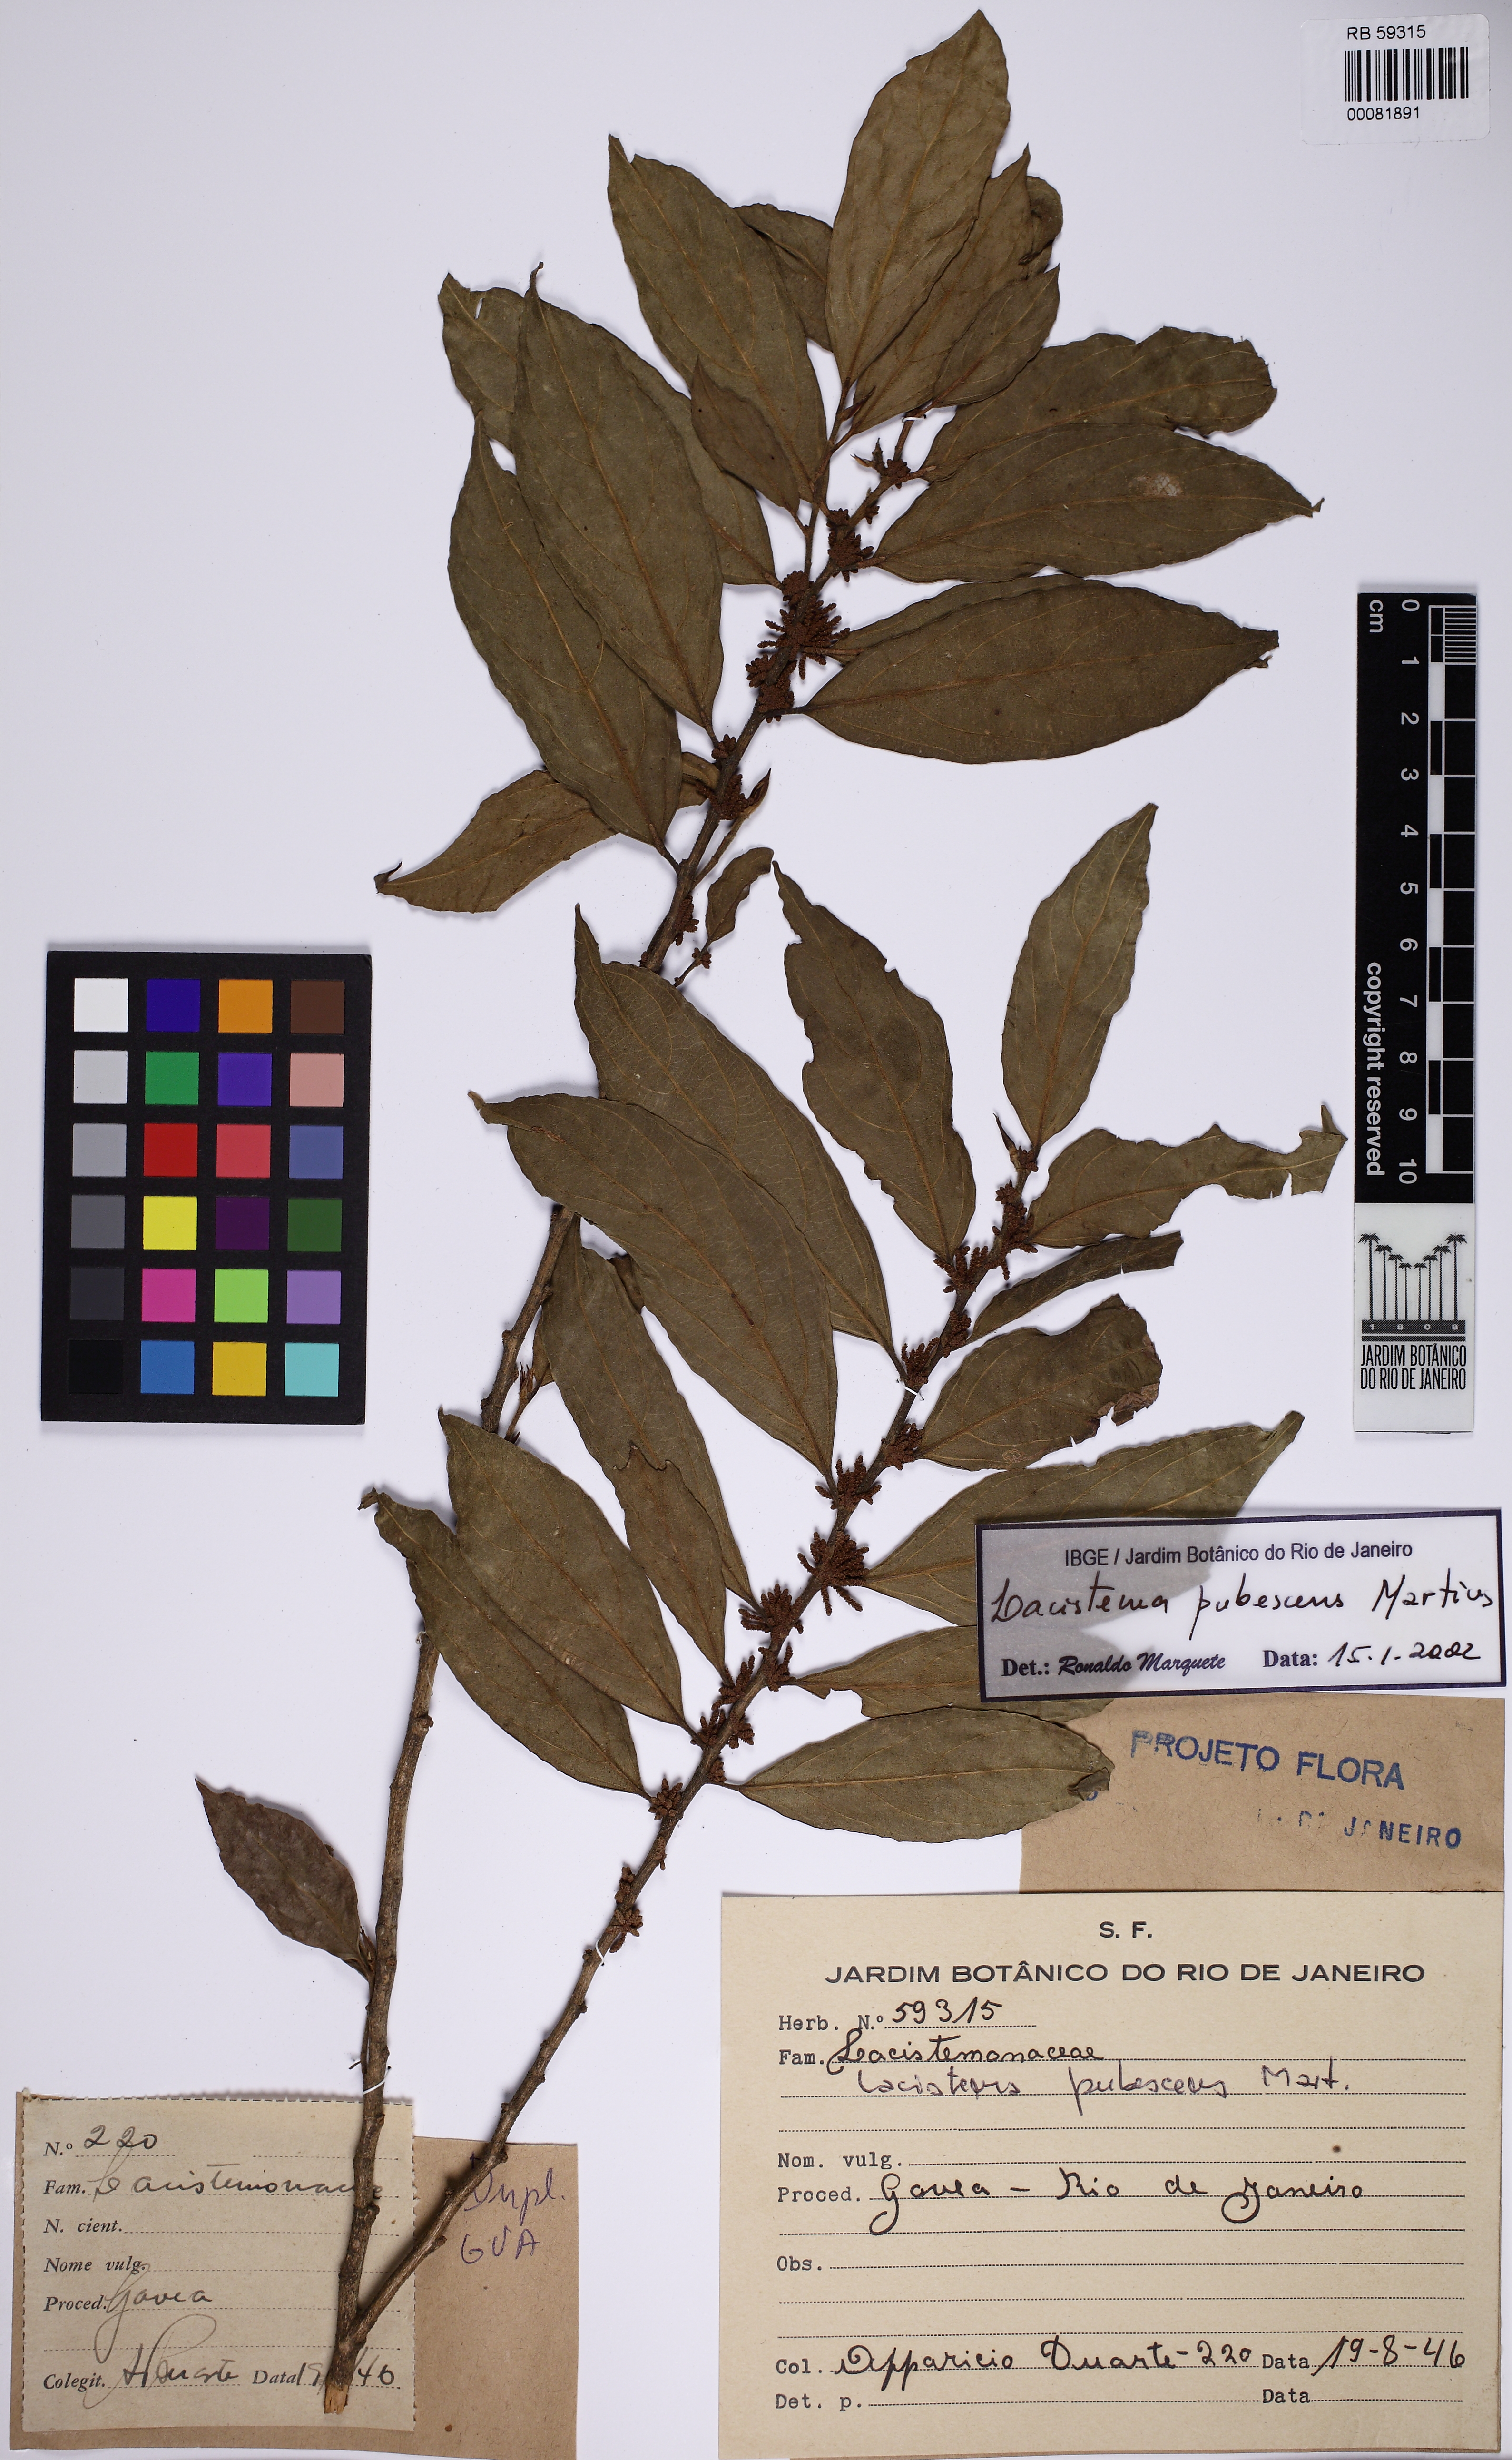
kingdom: Plantae
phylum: Tracheophyta
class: Magnoliopsida
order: Malpighiales
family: Lacistemataceae
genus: Lacistema
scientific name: Lacistema pubescens
